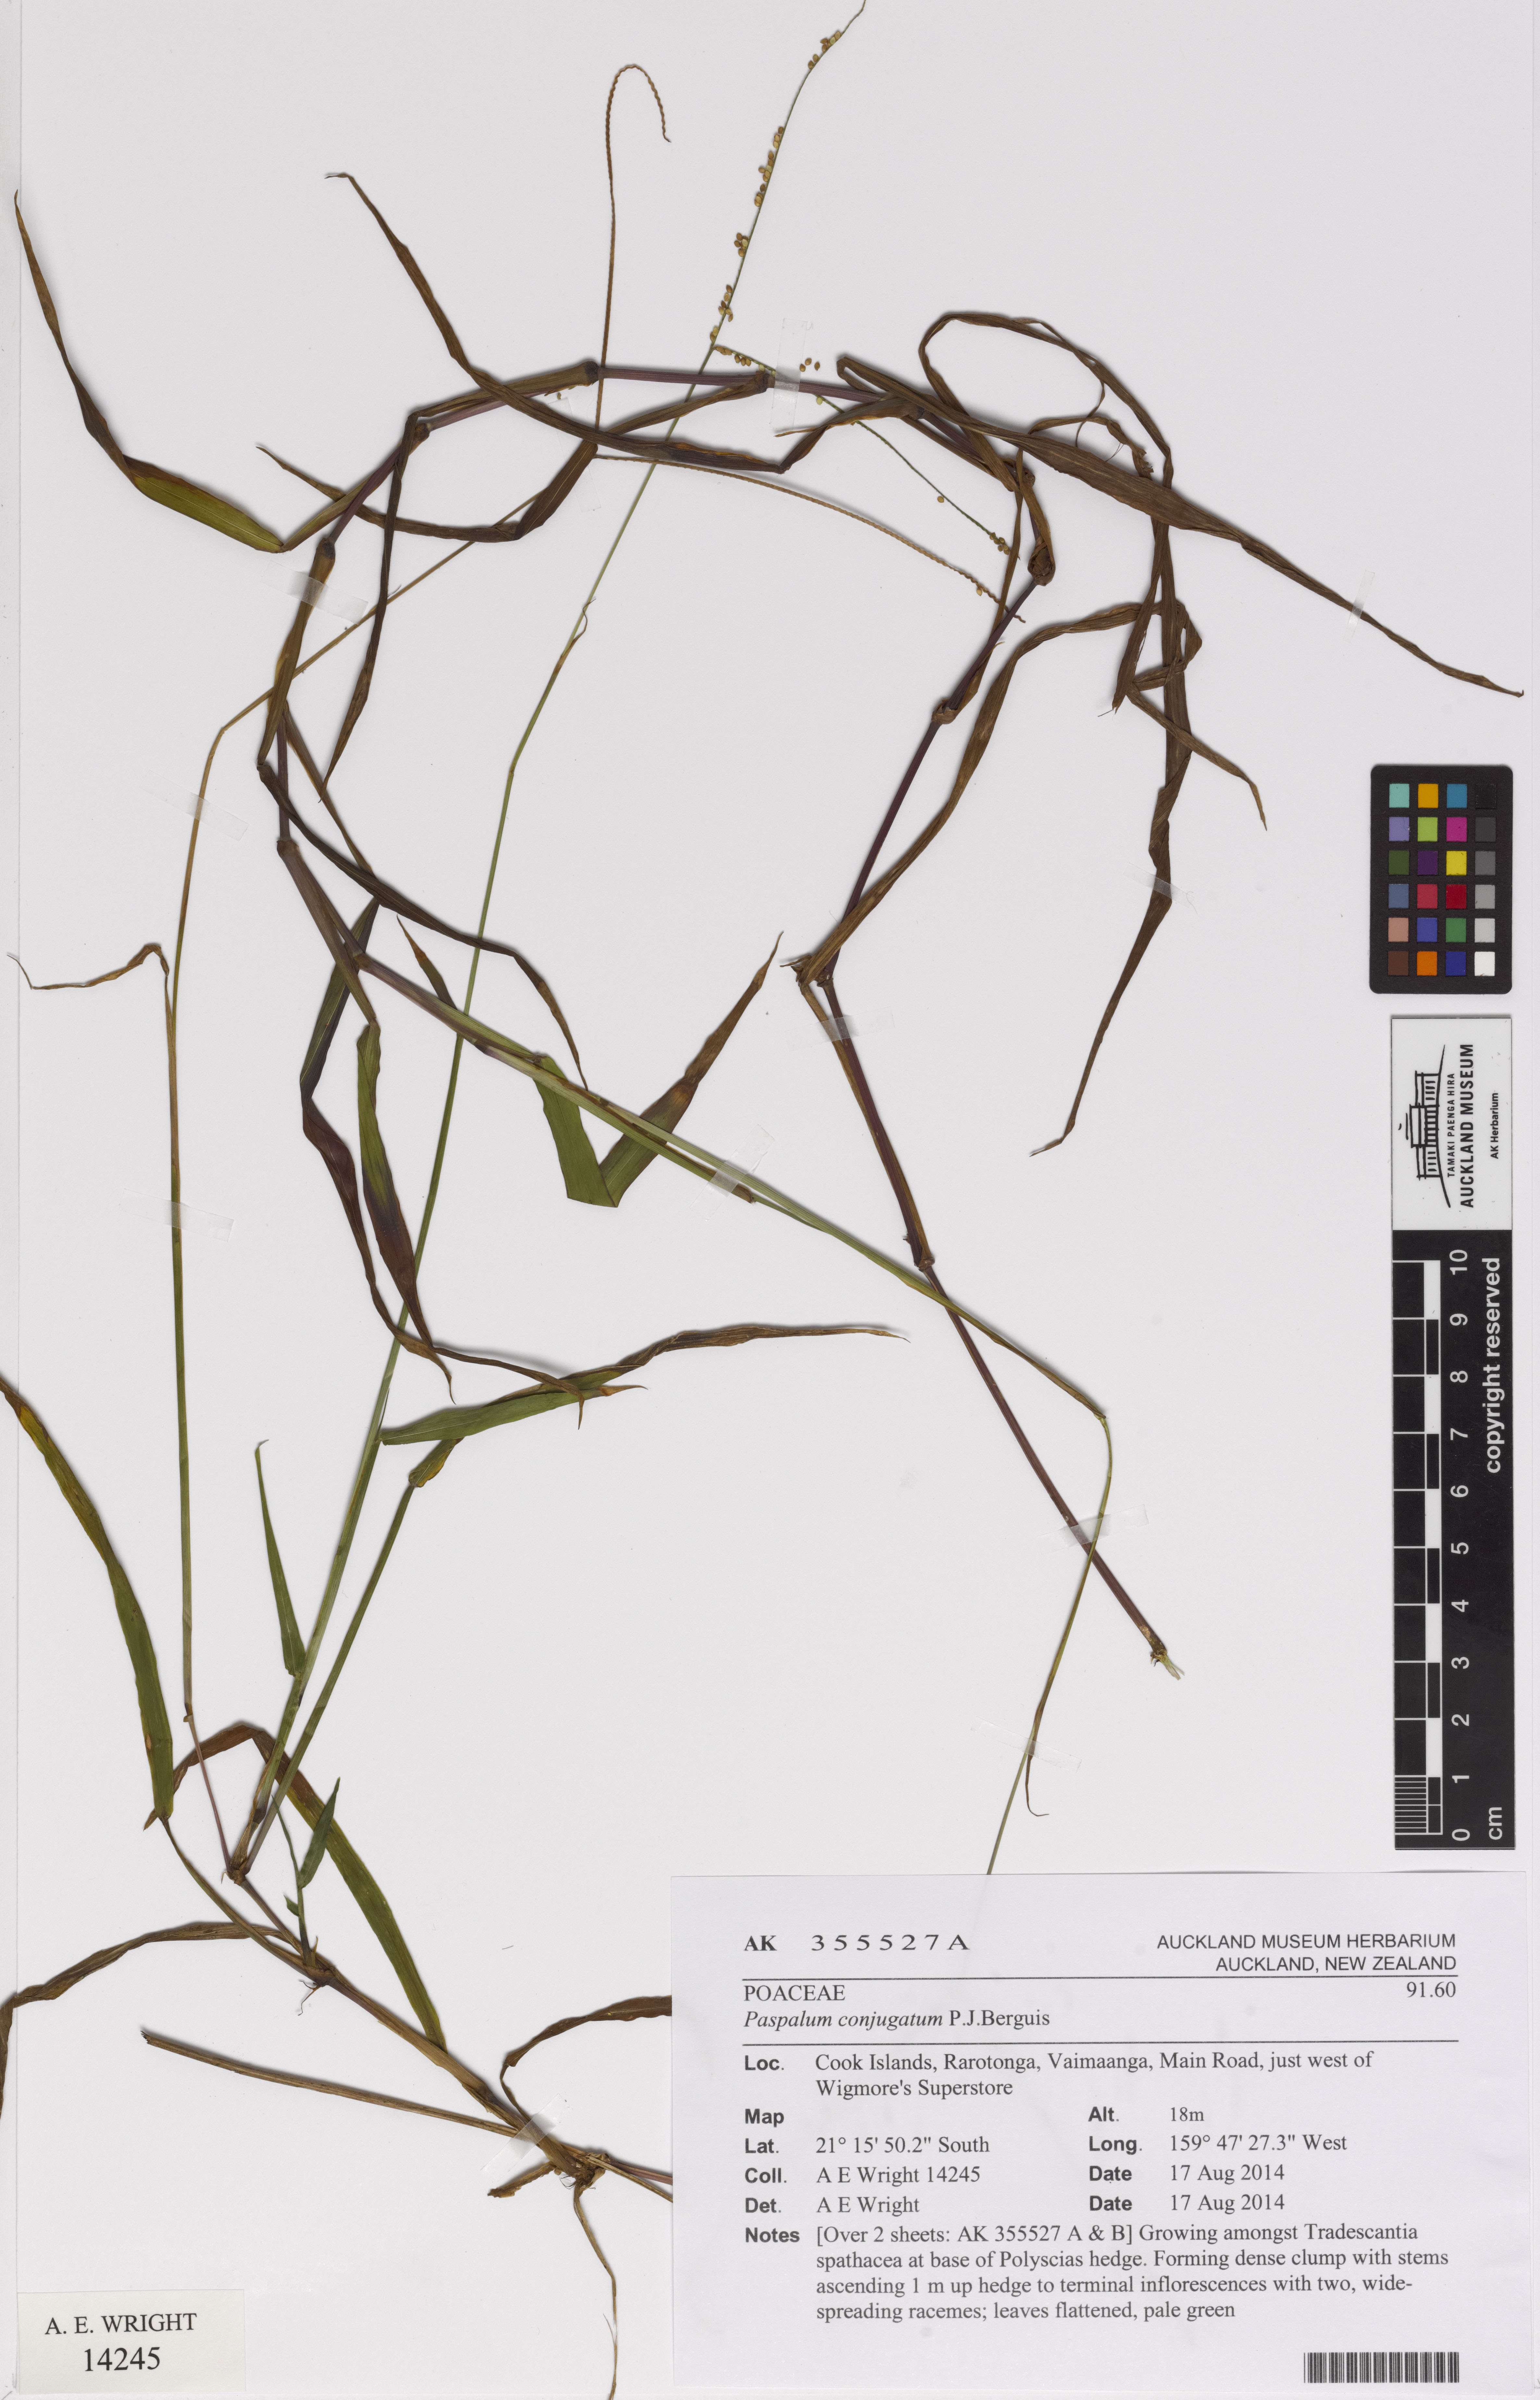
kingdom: Plantae
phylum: Tracheophyta
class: Liliopsida
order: Poales
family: Poaceae
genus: Paspalum
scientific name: Paspalum conjugatum
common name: Hilograss
